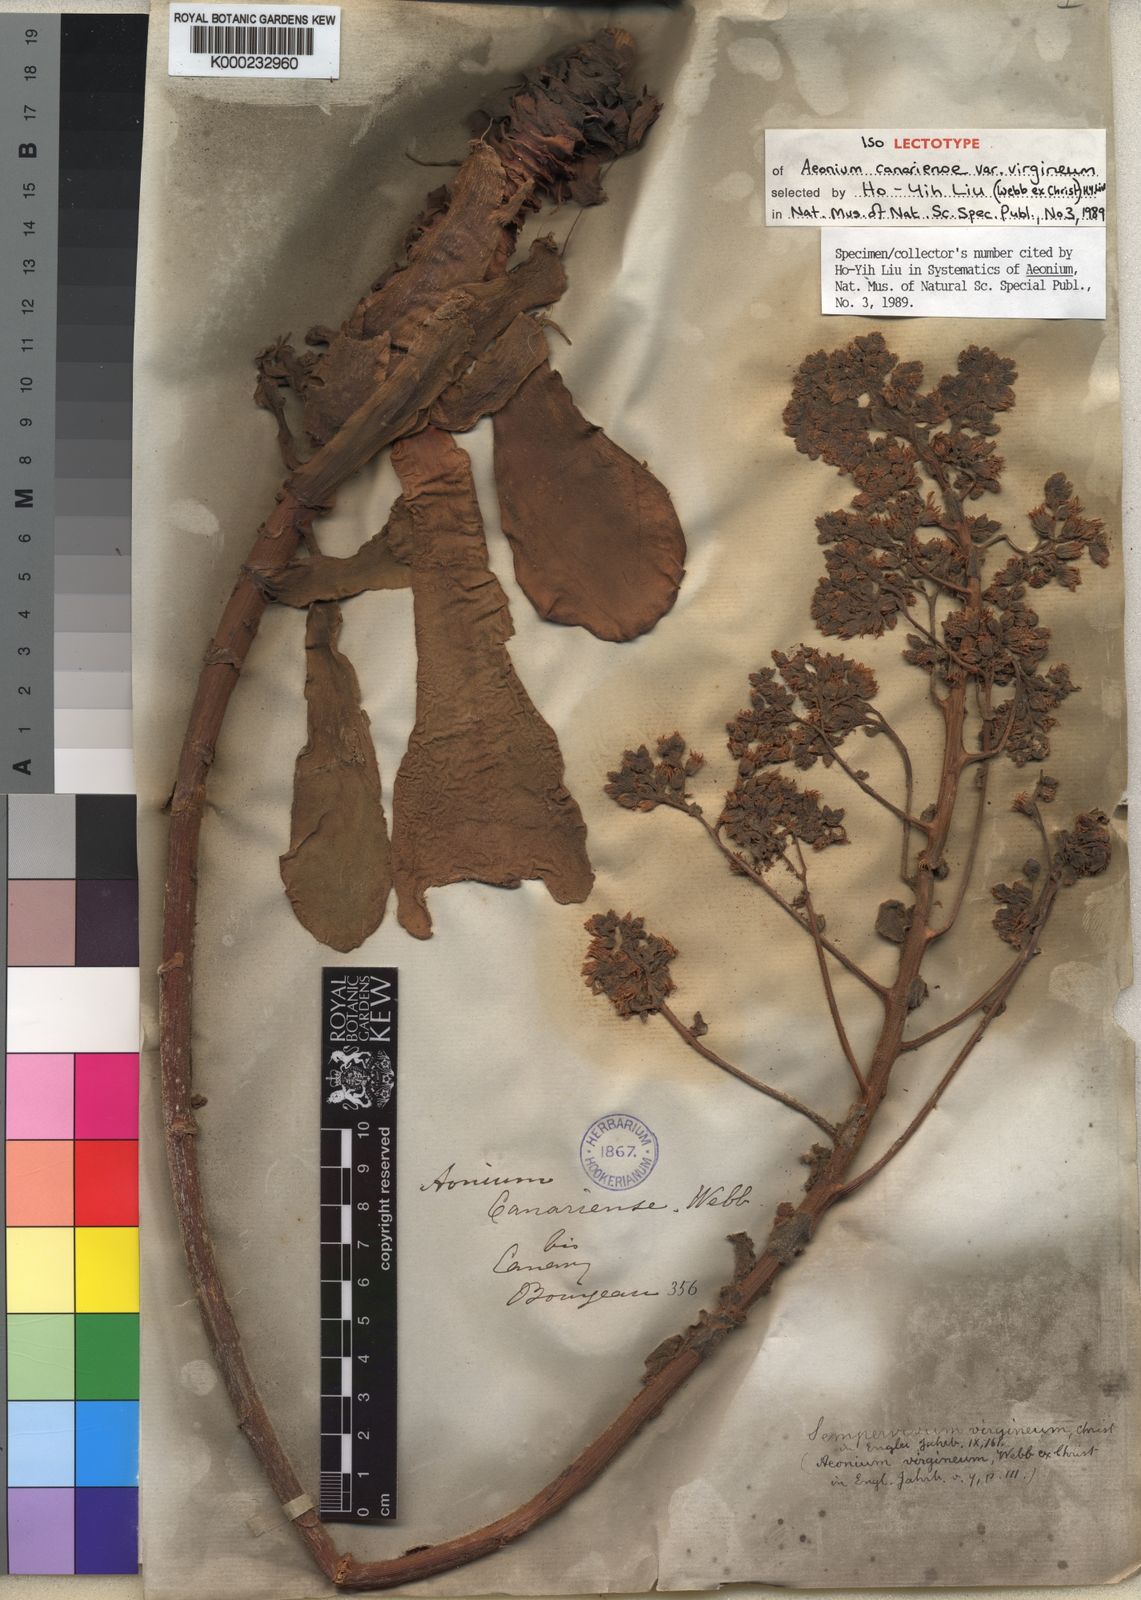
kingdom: Plantae
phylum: Tracheophyta
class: Magnoliopsida
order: Saxifragales
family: Crassulaceae
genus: Aeonium
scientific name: Aeonium canariense
